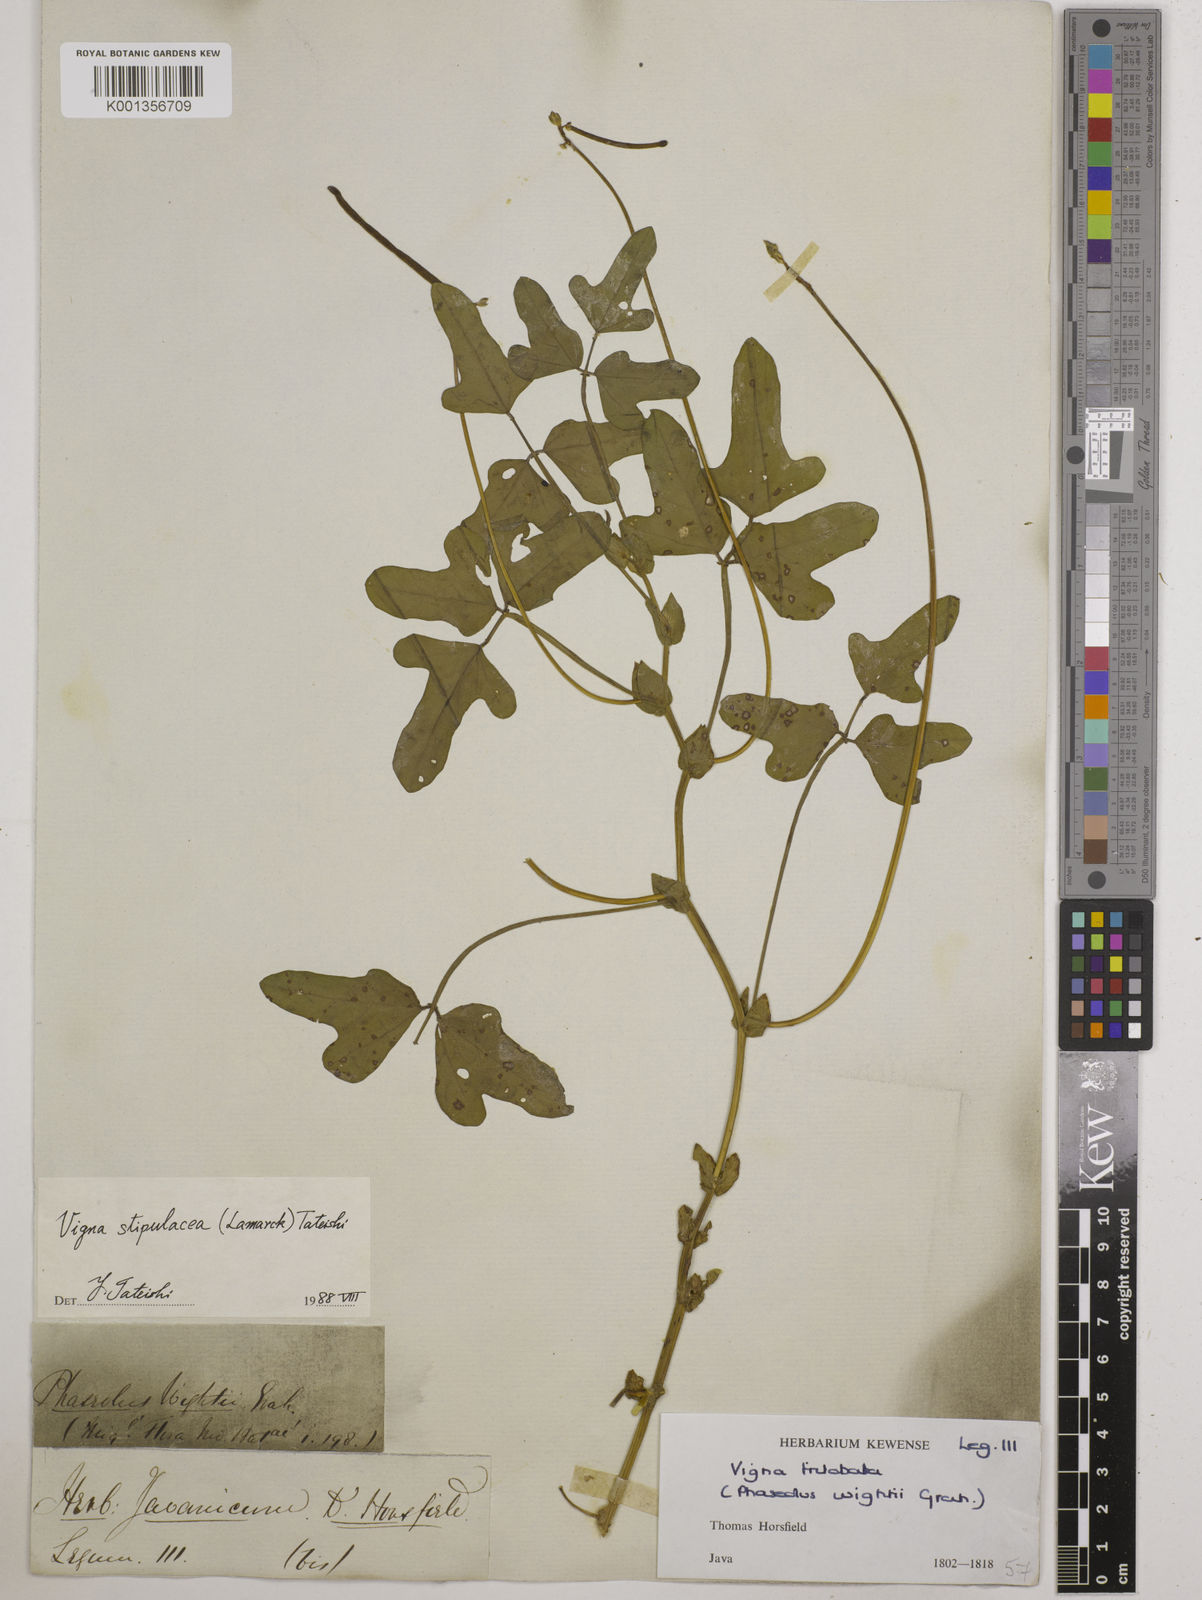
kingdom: Plantae
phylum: Tracheophyta
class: Magnoliopsida
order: Fabales
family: Fabaceae
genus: Pueraria
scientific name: Pueraria montana
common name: Kudzu
